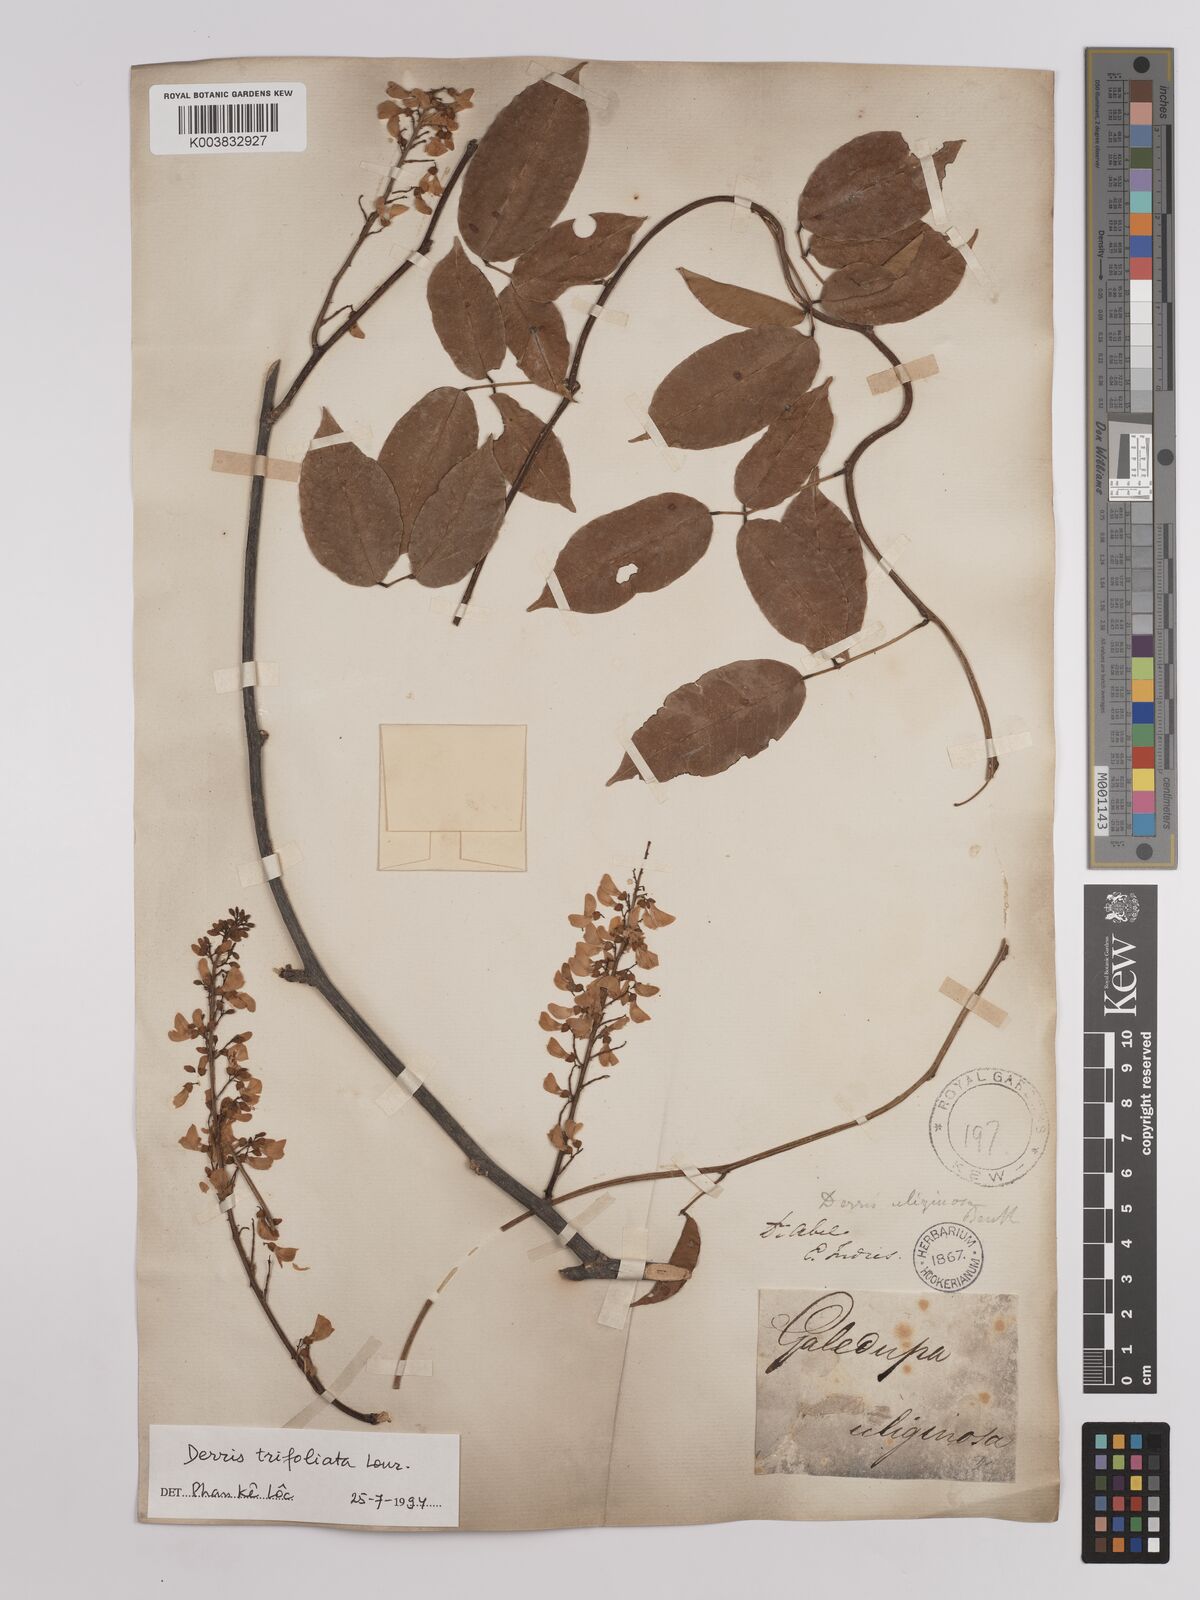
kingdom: Plantae
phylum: Tracheophyta
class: Magnoliopsida
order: Fabales
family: Fabaceae
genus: Derris
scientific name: Derris trifoliata
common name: Three-leaf derris
